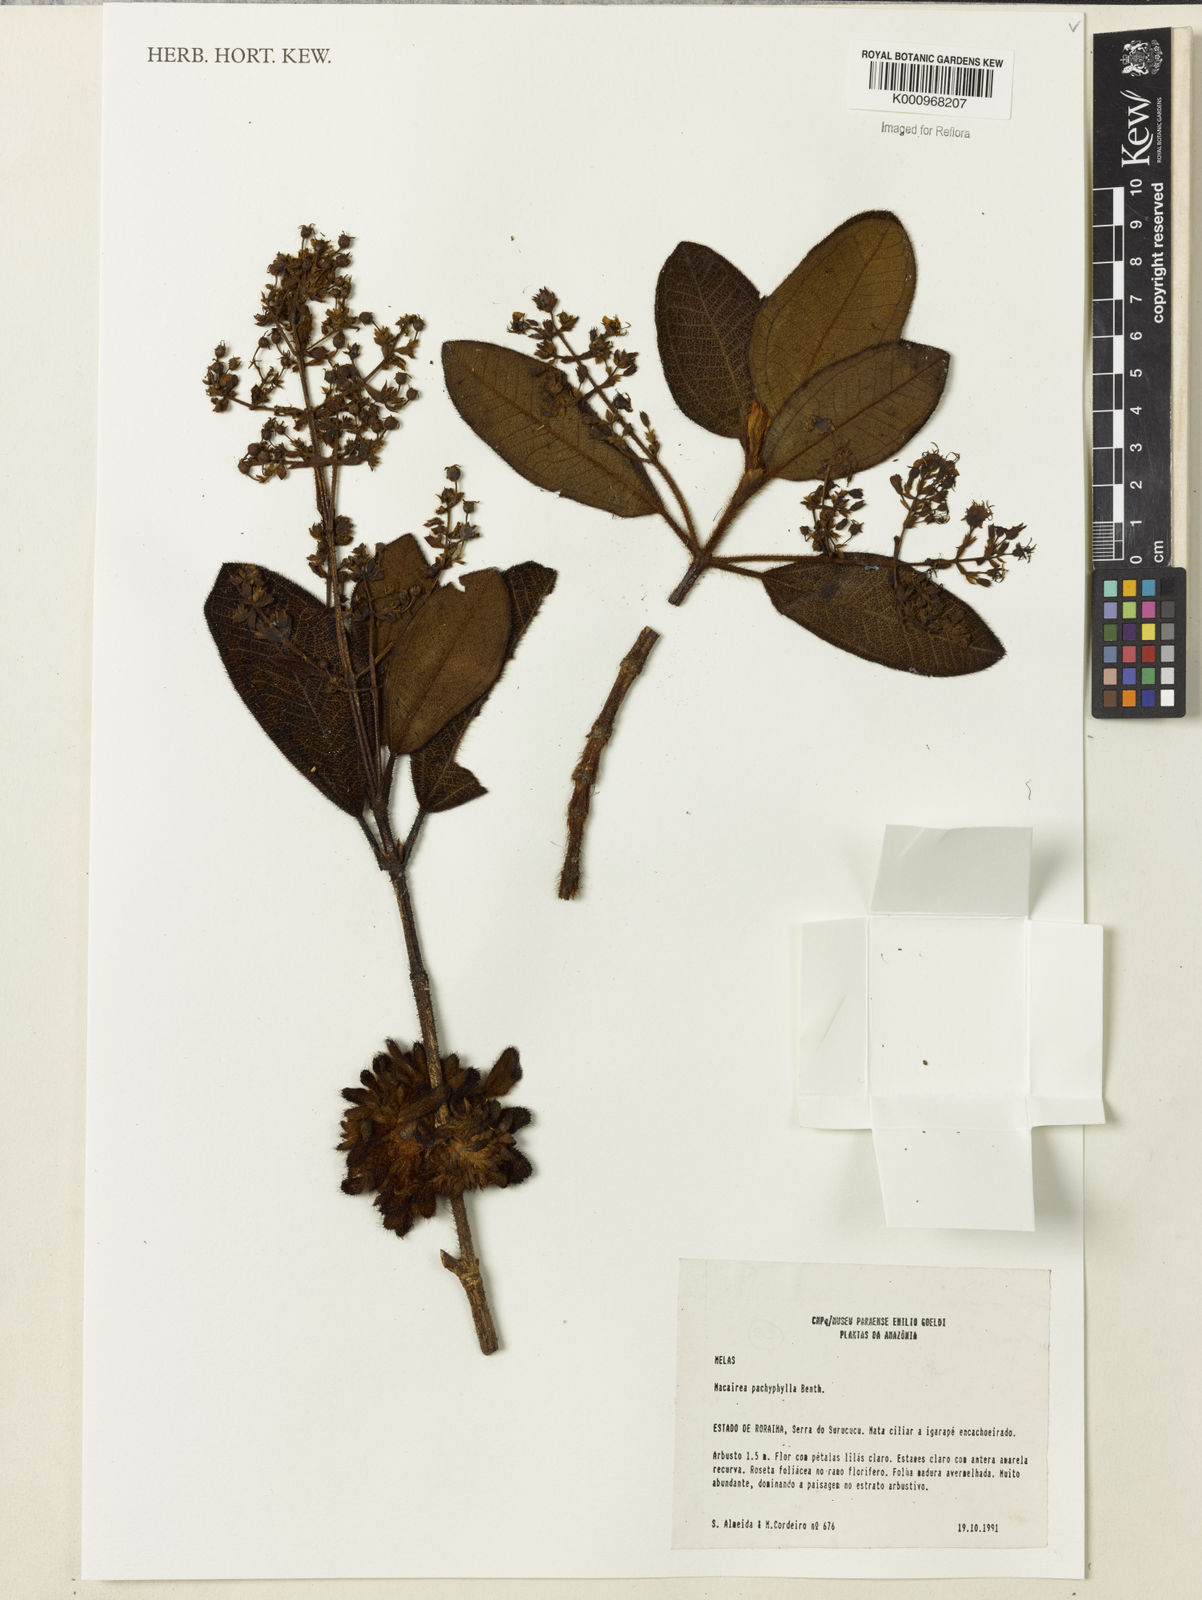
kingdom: Plantae
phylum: Tracheophyta
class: Magnoliopsida
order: Myrtales
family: Melastomataceae
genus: Macairea
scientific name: Macairea pachyphylla
